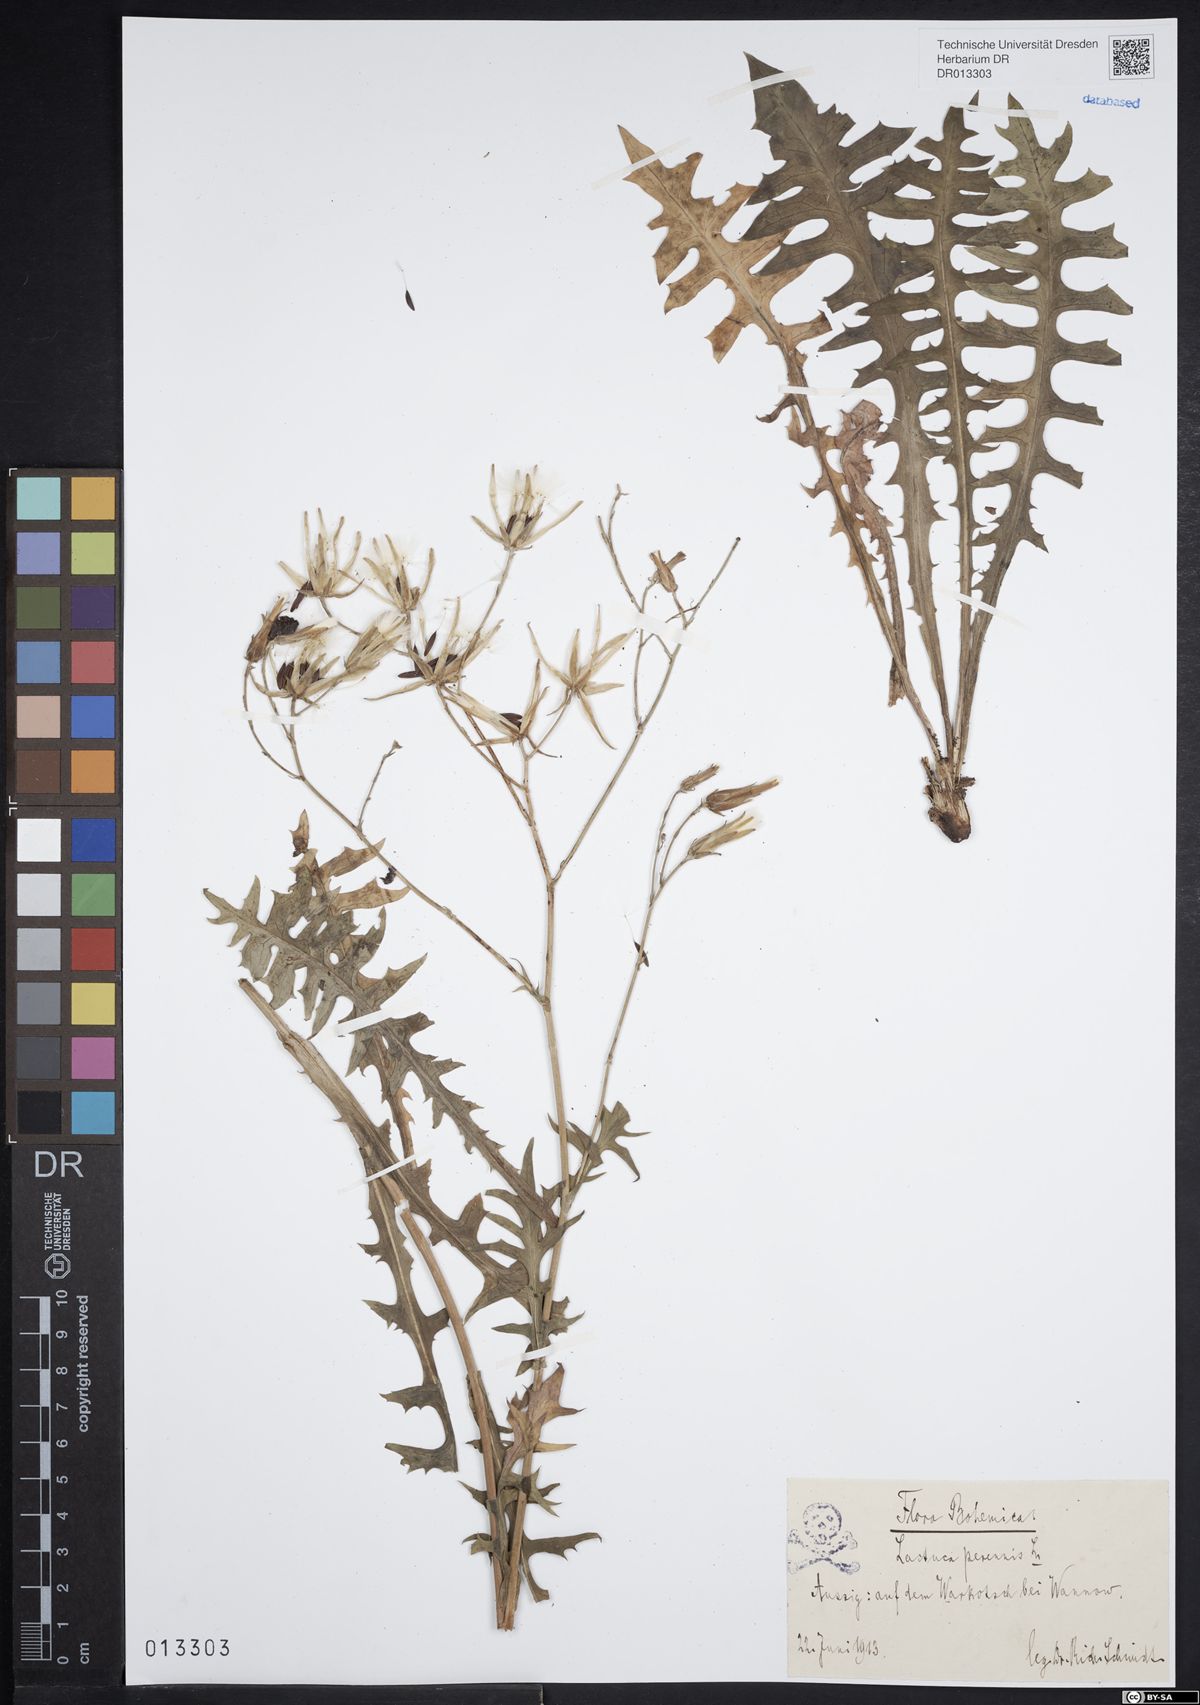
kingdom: Plantae
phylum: Tracheophyta
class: Magnoliopsida
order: Asterales
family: Asteraceae
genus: Lactuca
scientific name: Lactuca perennis
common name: Mountain lettuce
